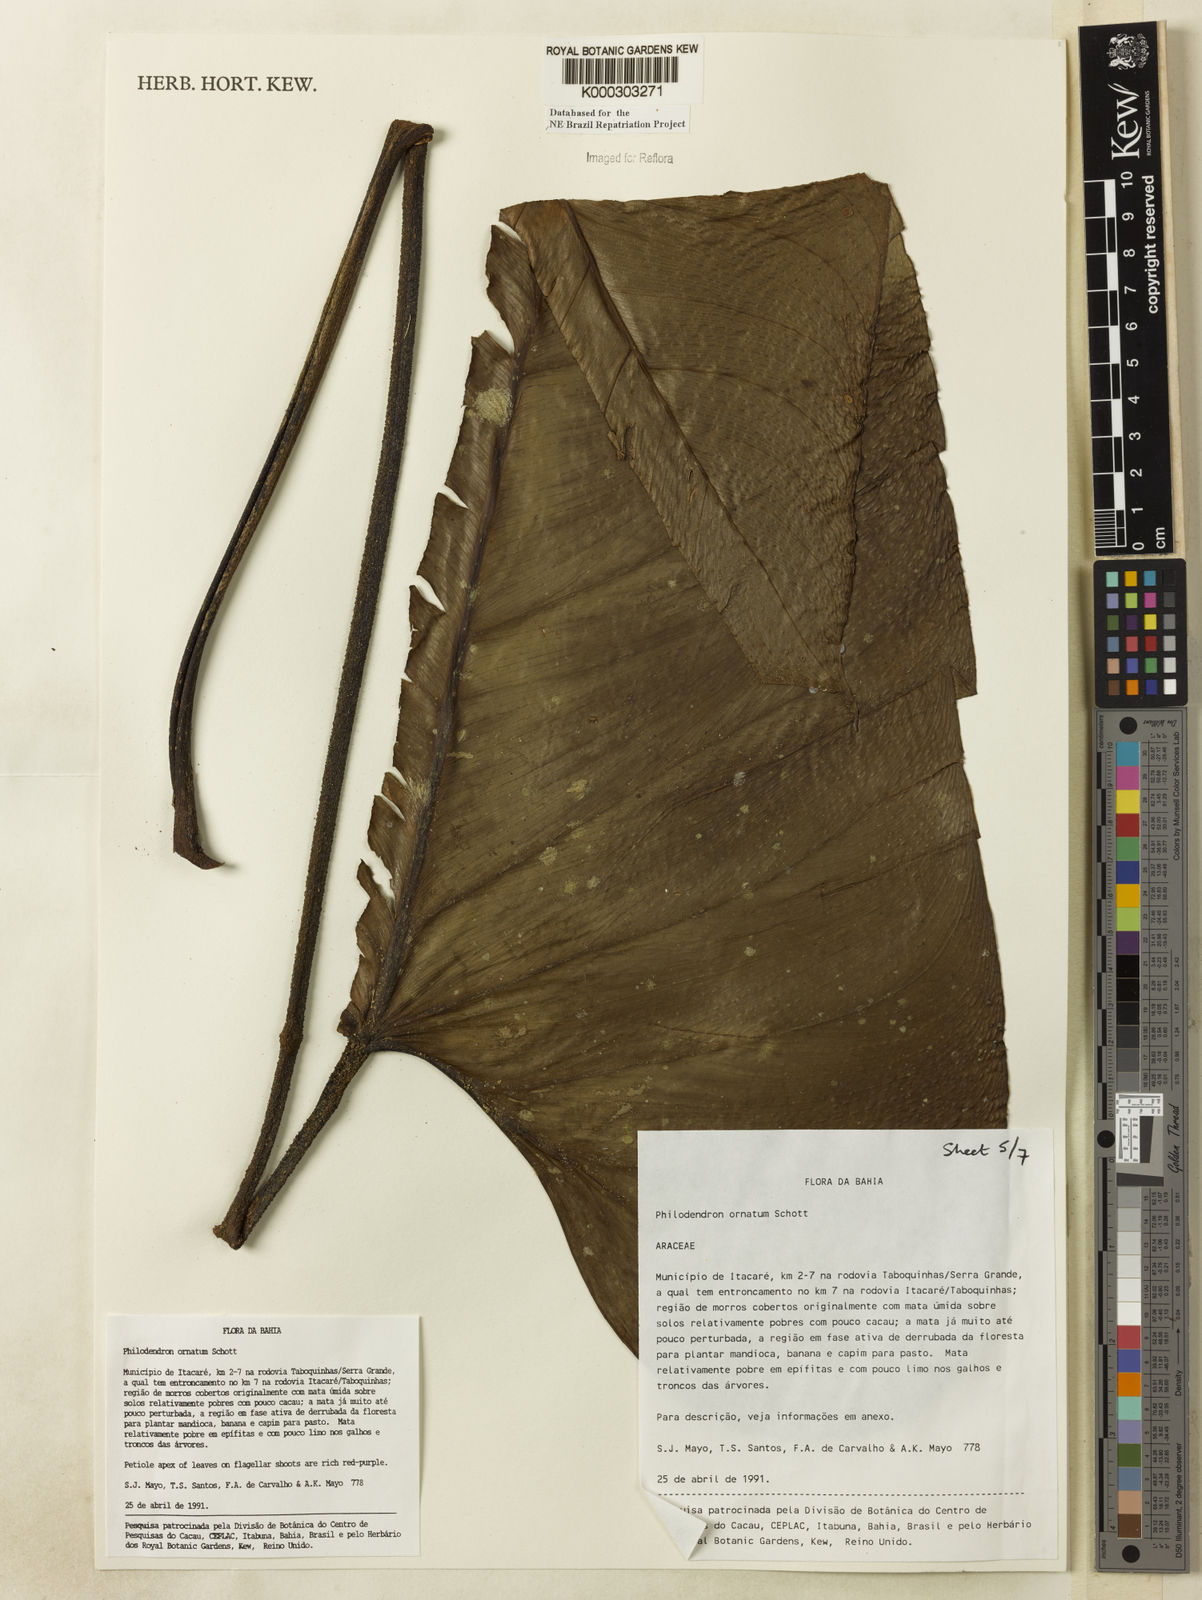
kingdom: Plantae
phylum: Tracheophyta
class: Liliopsida
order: Alismatales
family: Araceae
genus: Philodendron
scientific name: Philodendron ornatum
